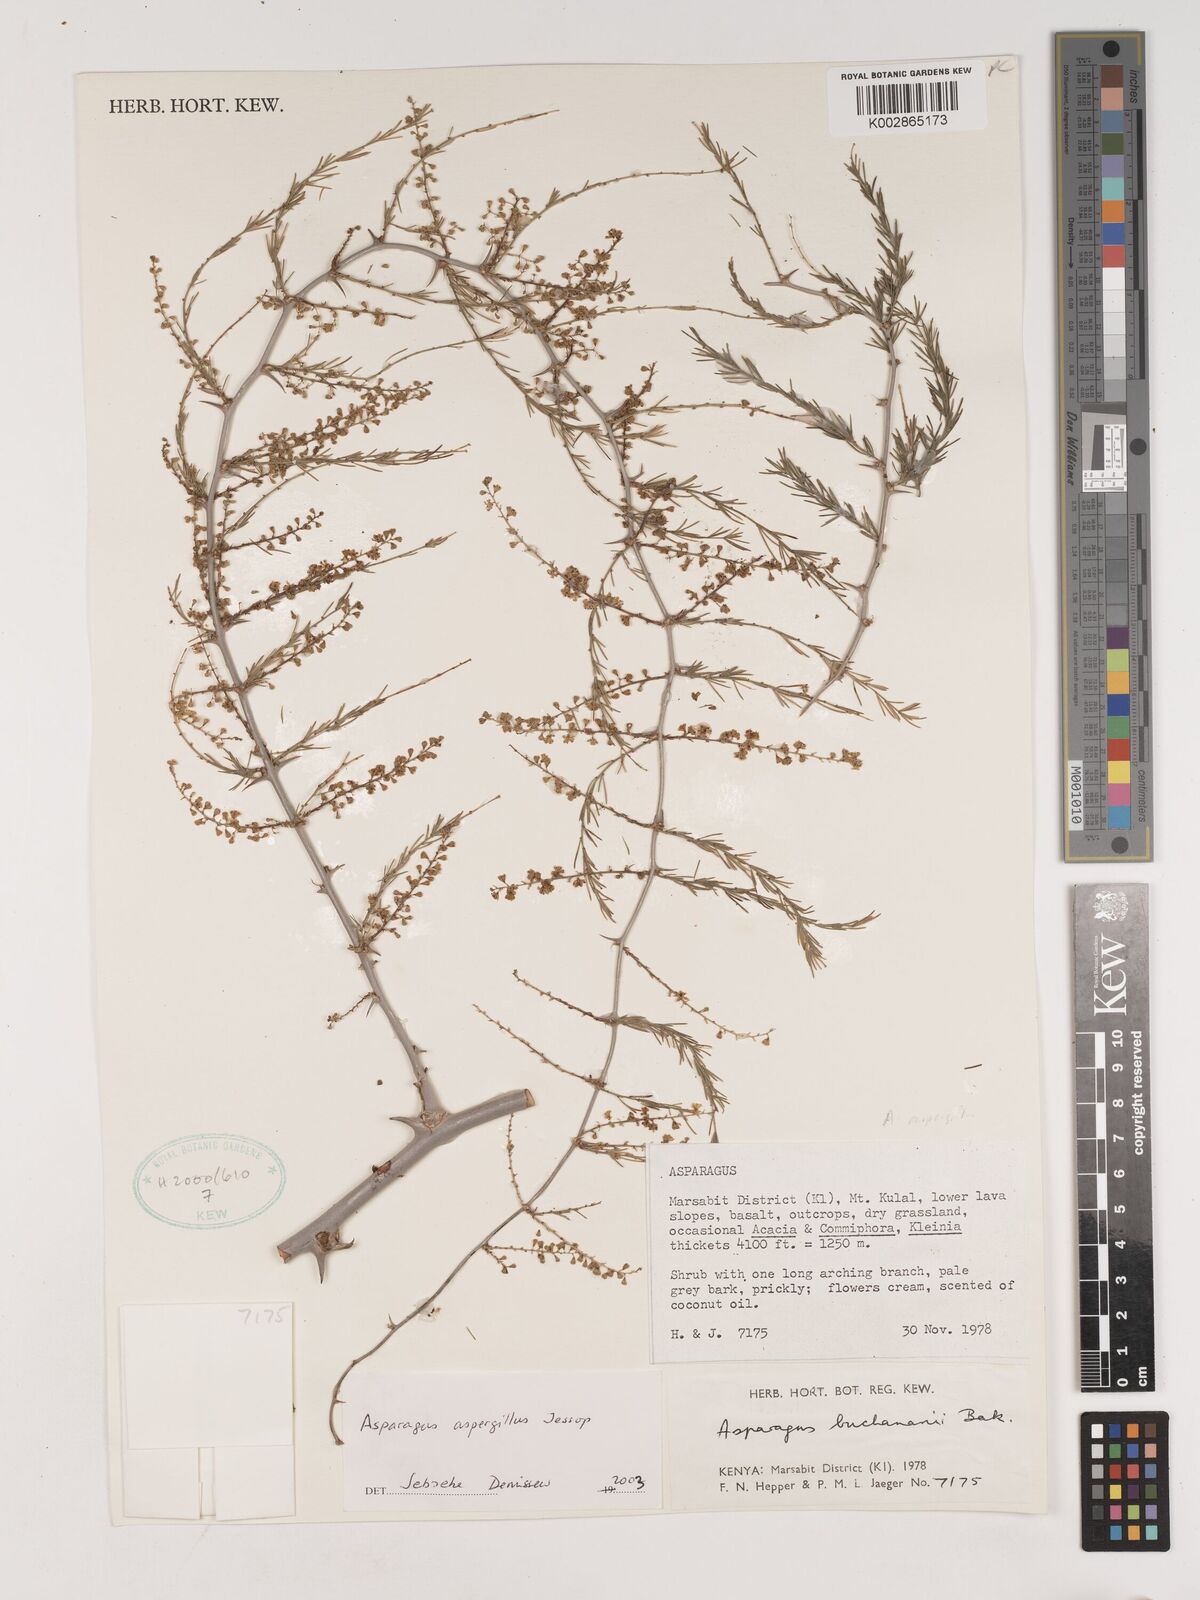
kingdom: Plantae
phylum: Tracheophyta
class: Liliopsida
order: Asparagales
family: Asparagaceae
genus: Asparagus
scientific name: Asparagus aspergillus
